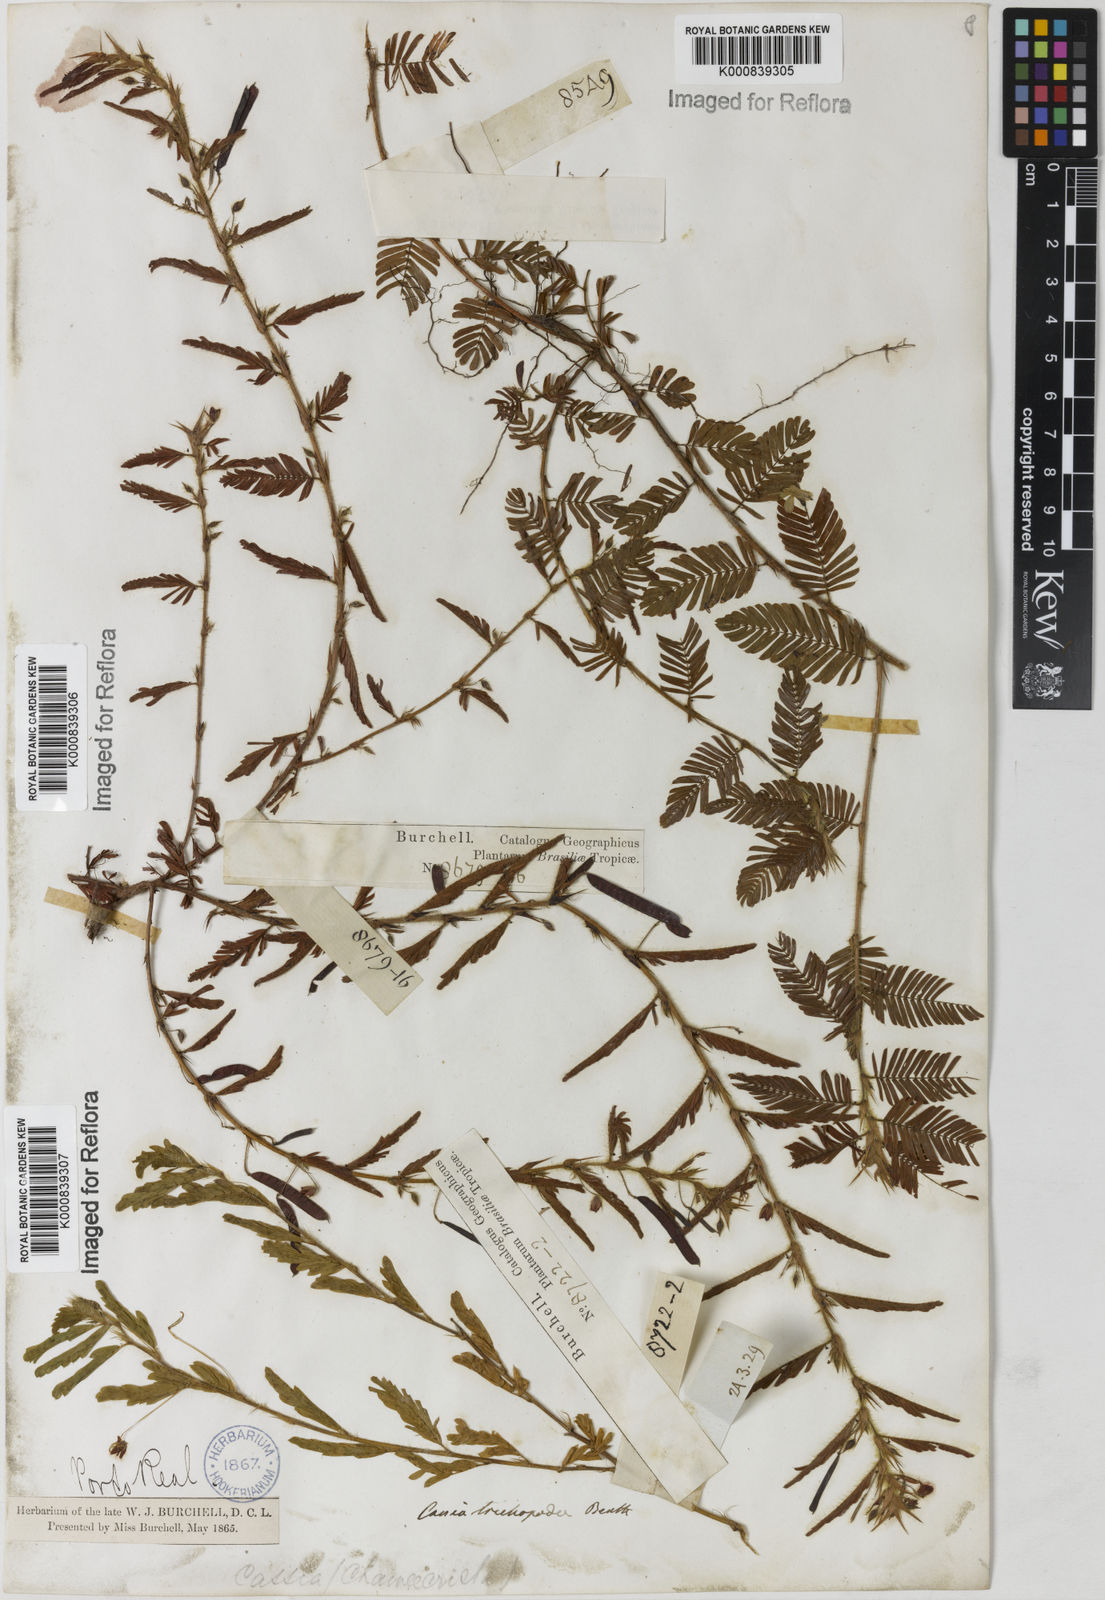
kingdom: Plantae
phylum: Tracheophyta
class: Magnoliopsida
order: Fabales
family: Fabaceae
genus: Chamaecrista
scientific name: Chamaecrista trichopoda
